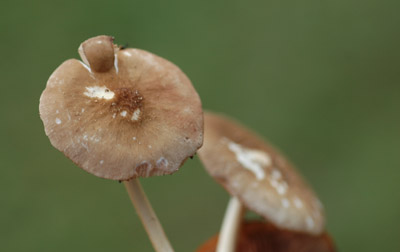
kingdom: Fungi
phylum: Basidiomycota
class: Agaricomycetes
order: Agaricales
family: Pluteaceae
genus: Pluteus
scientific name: Pluteus phlebophorus
